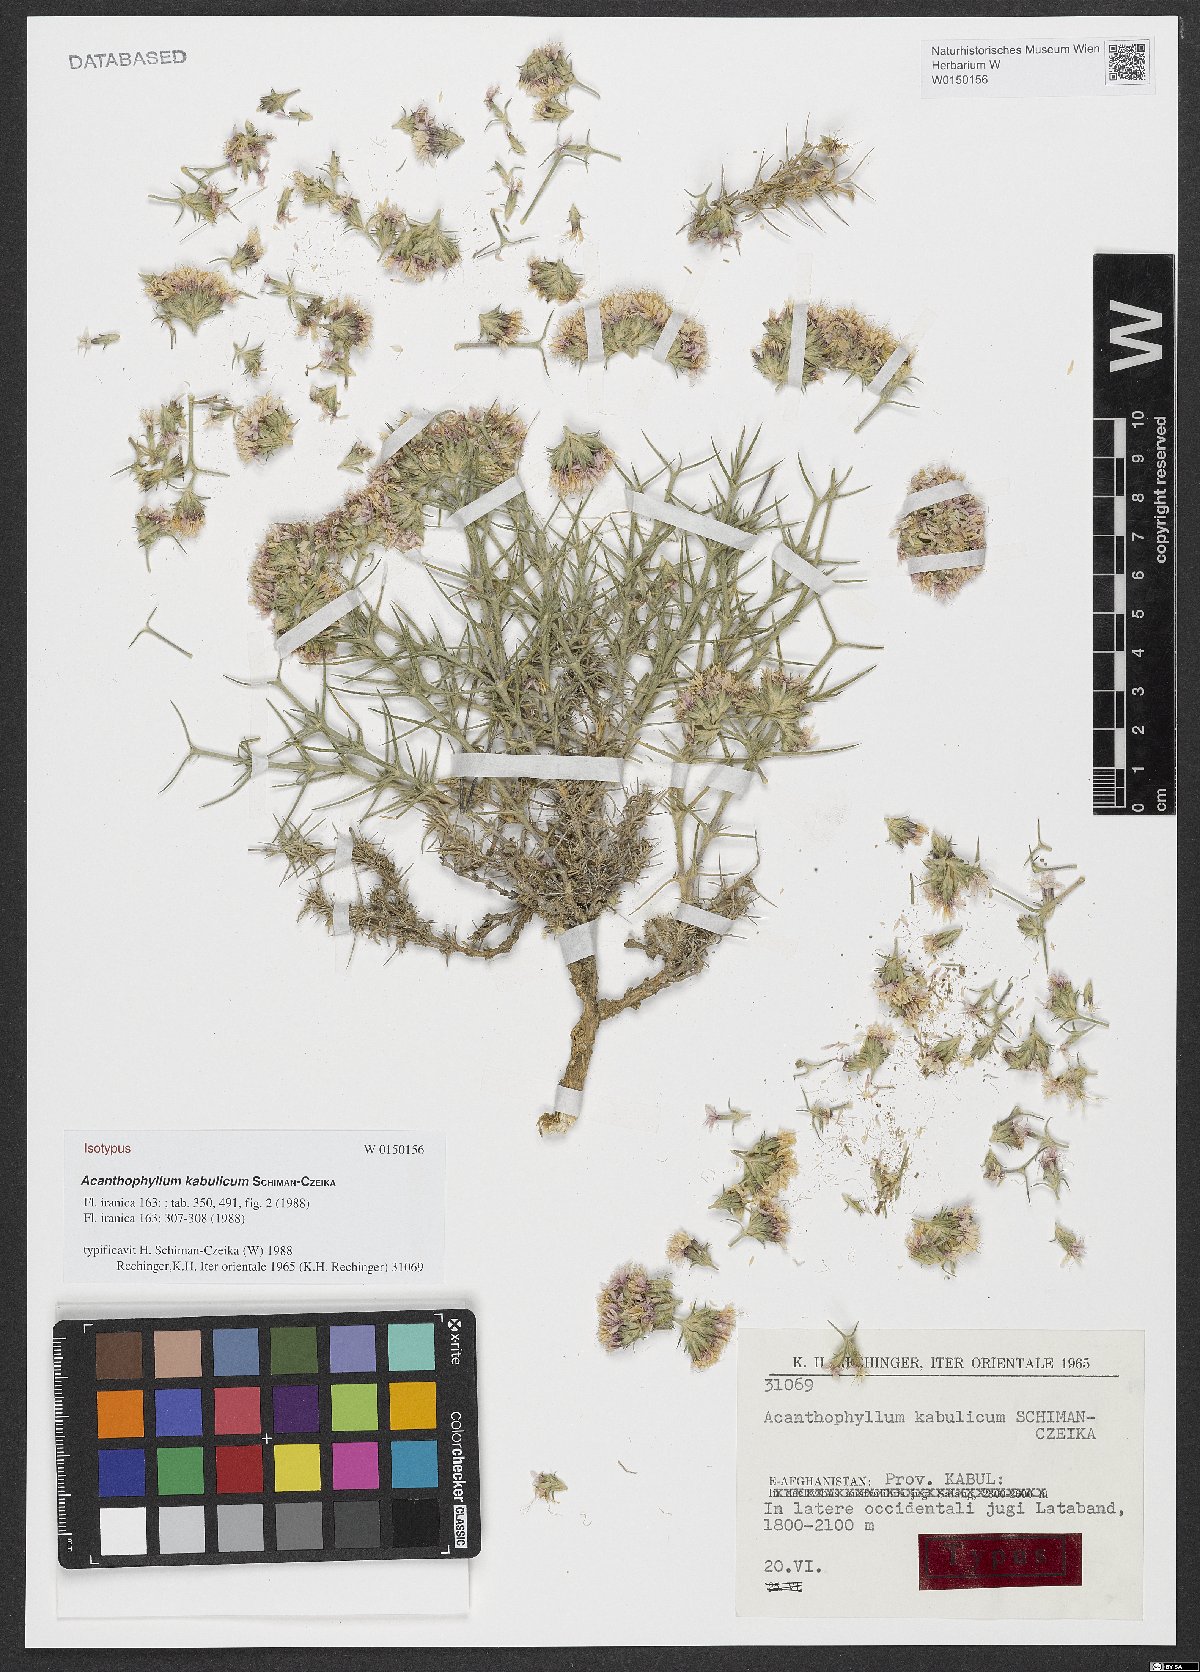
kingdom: Plantae
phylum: Tracheophyta
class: Magnoliopsida
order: Caryophyllales
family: Caryophyllaceae
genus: Acanthophyllum
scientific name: Acanthophyllum kabulicum
